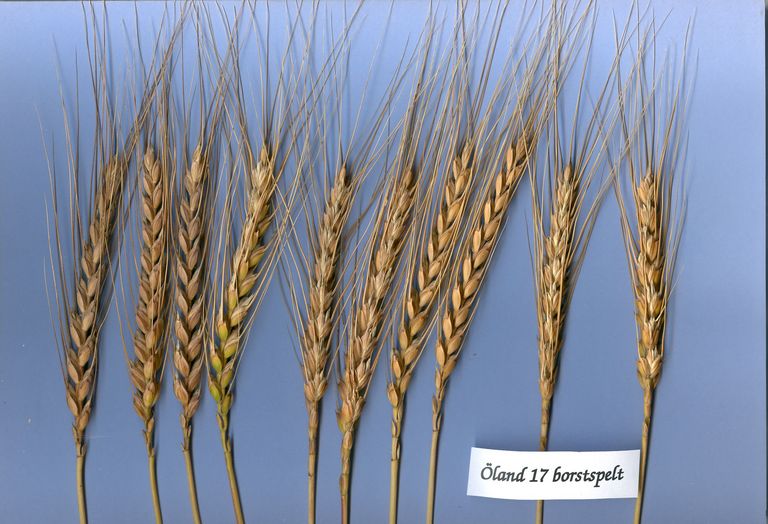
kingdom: Plantae
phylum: Tracheophyta
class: Liliopsida
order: Poales
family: Poaceae
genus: Triticum
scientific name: Triticum aestivum
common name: Common wheat
